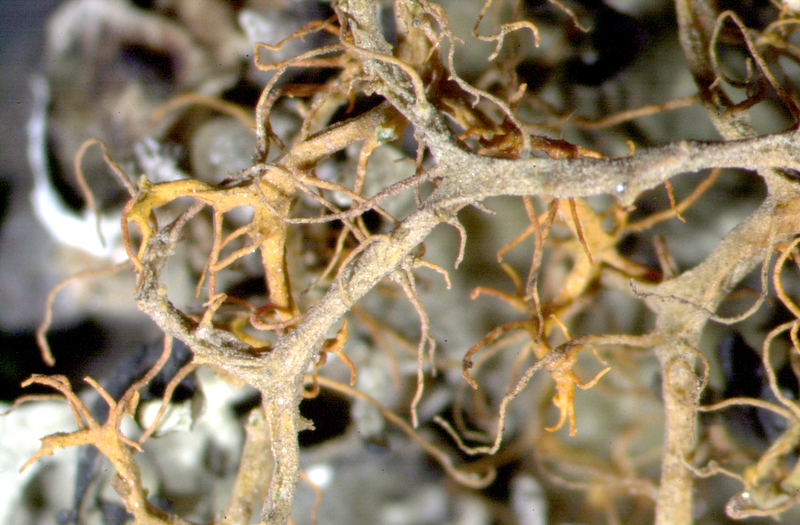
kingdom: Fungi
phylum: Ascomycota
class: Lecanoromycetes
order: Teloschistales
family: Teloschistaceae
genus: Teloschistes
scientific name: Teloschistes capensis
